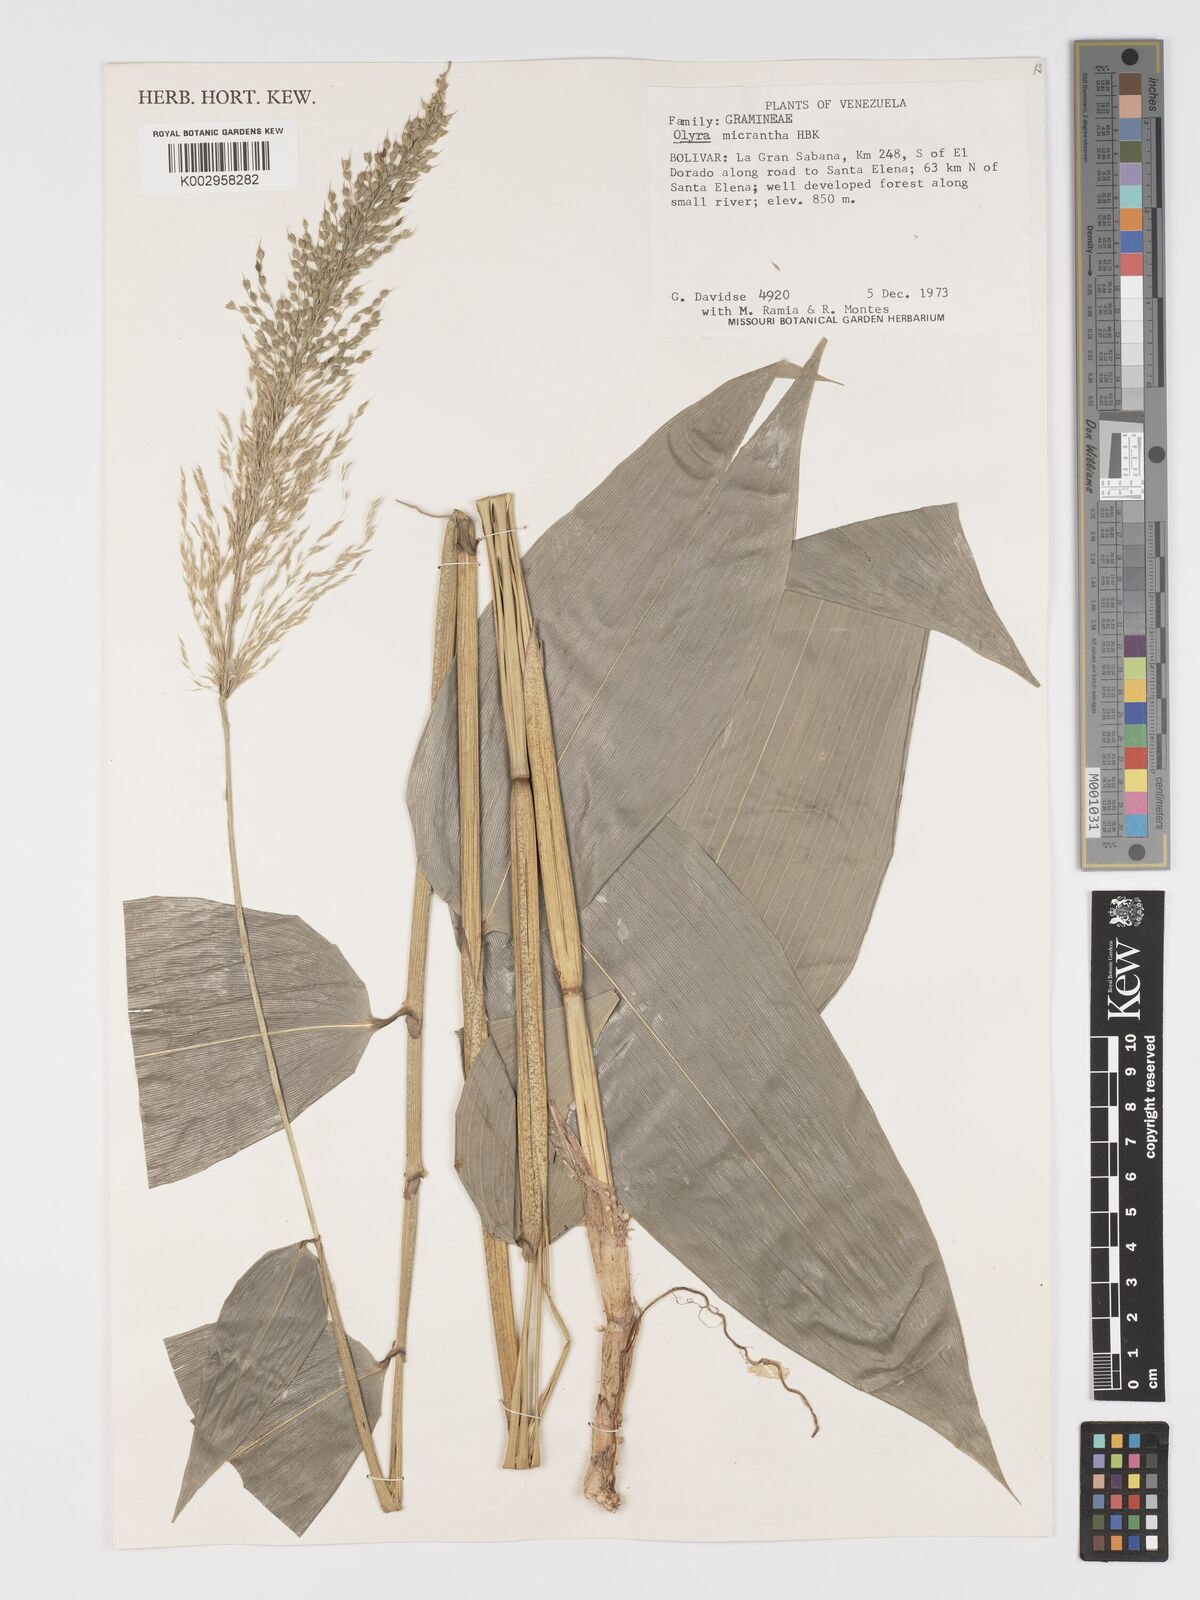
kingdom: Plantae
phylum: Tracheophyta
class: Liliopsida
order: Poales
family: Poaceae
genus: Taquara
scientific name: Taquara micrantha
